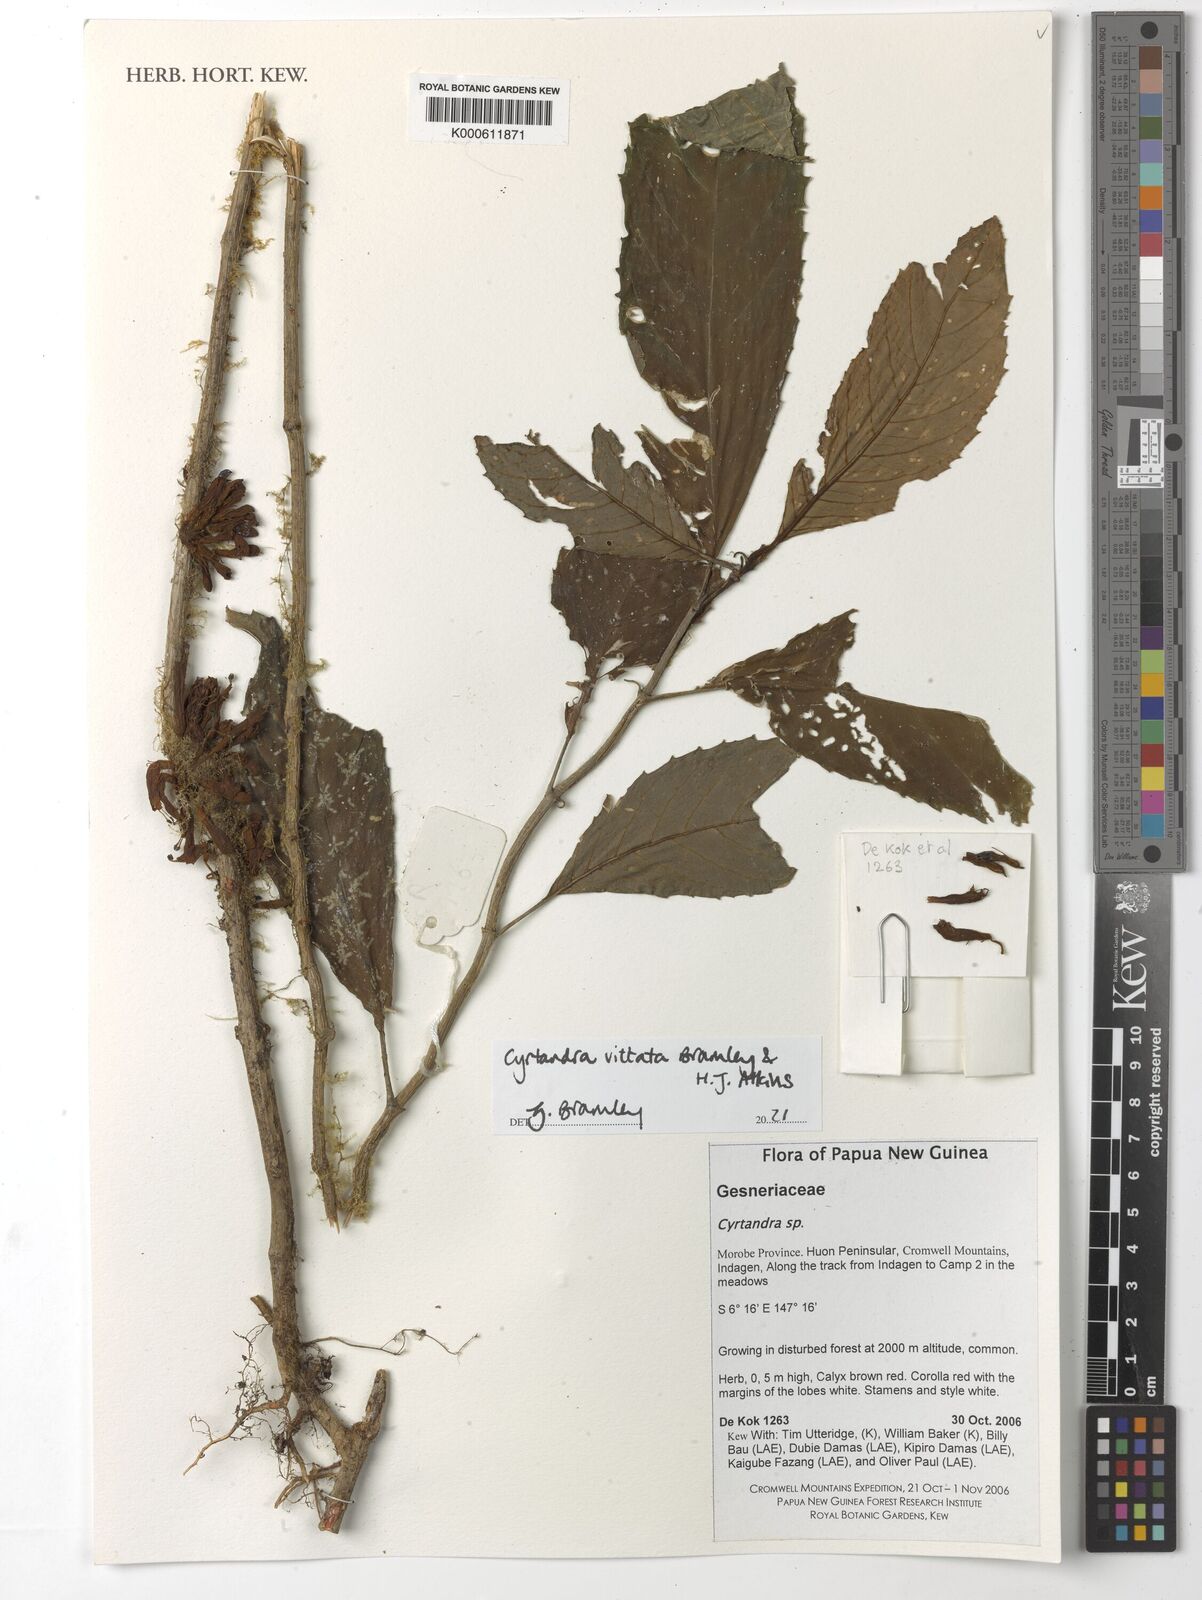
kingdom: Plantae
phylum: Tracheophyta
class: Magnoliopsida
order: Lamiales
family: Gesneriaceae
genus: Cyrtandra
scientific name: Cyrtandra
